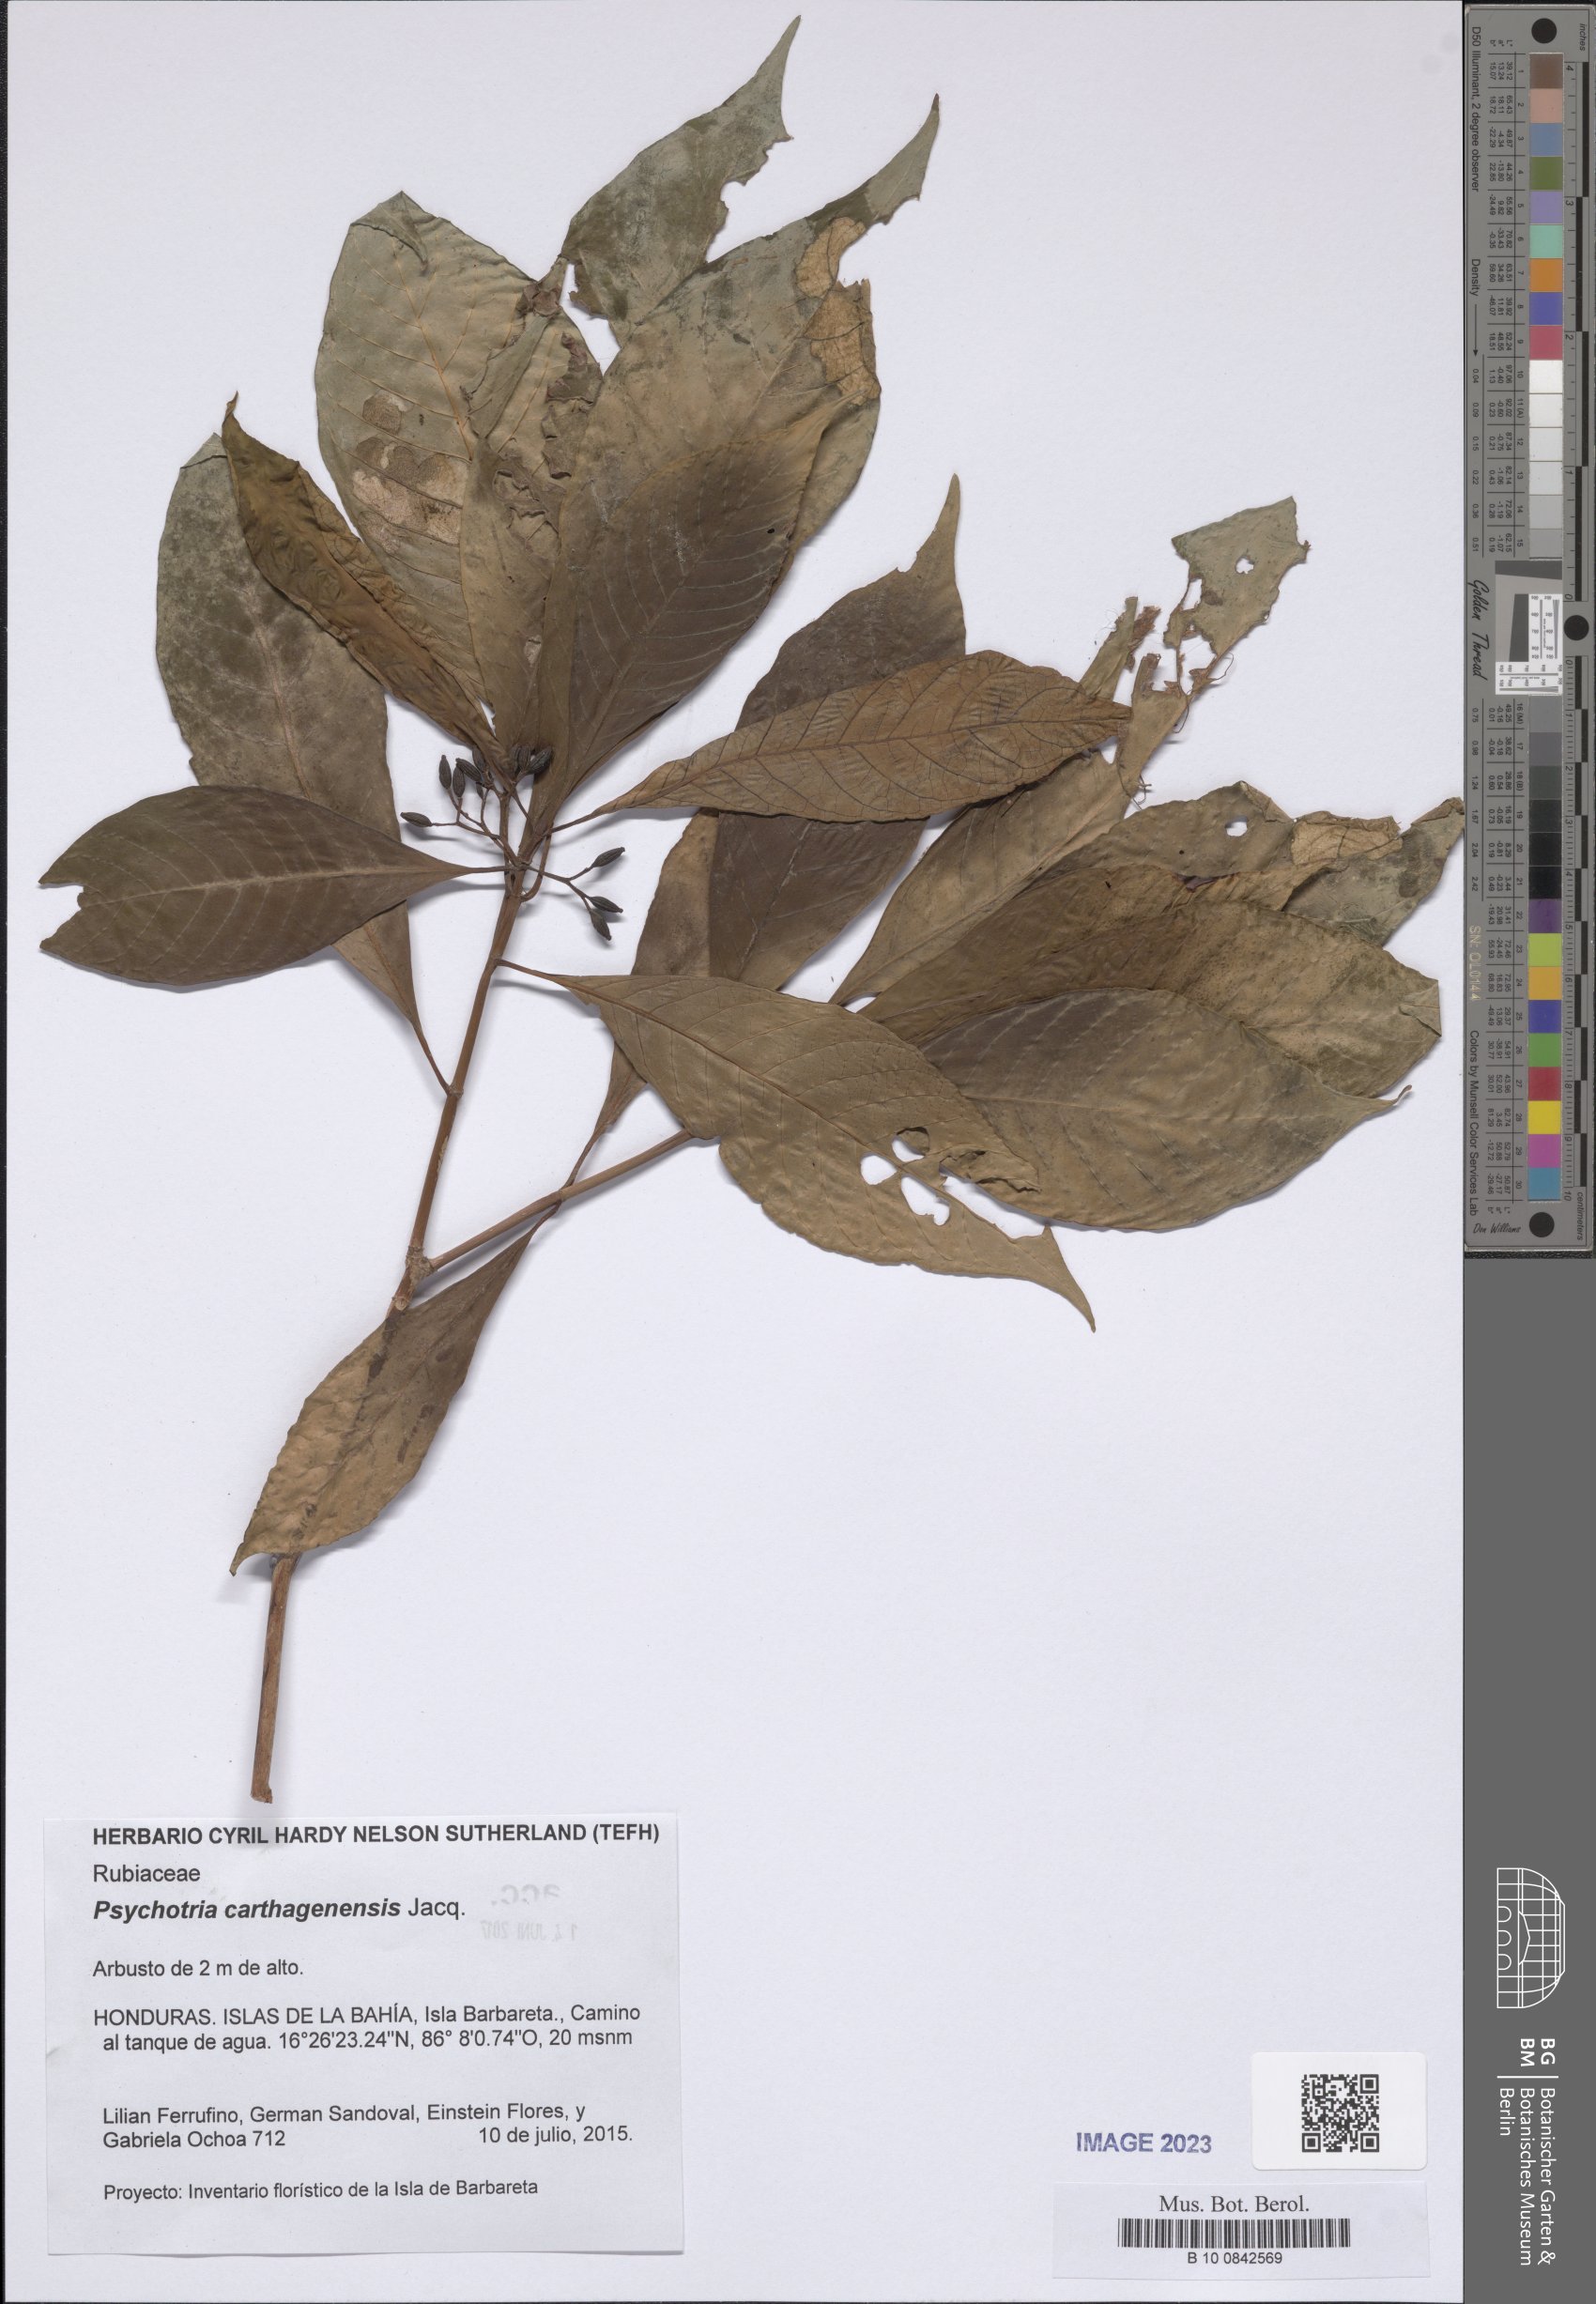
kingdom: Plantae
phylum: Tracheophyta
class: Magnoliopsida
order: Gentianales
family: Rubiaceae
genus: Psychotria
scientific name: Psychotria carthagenensis
